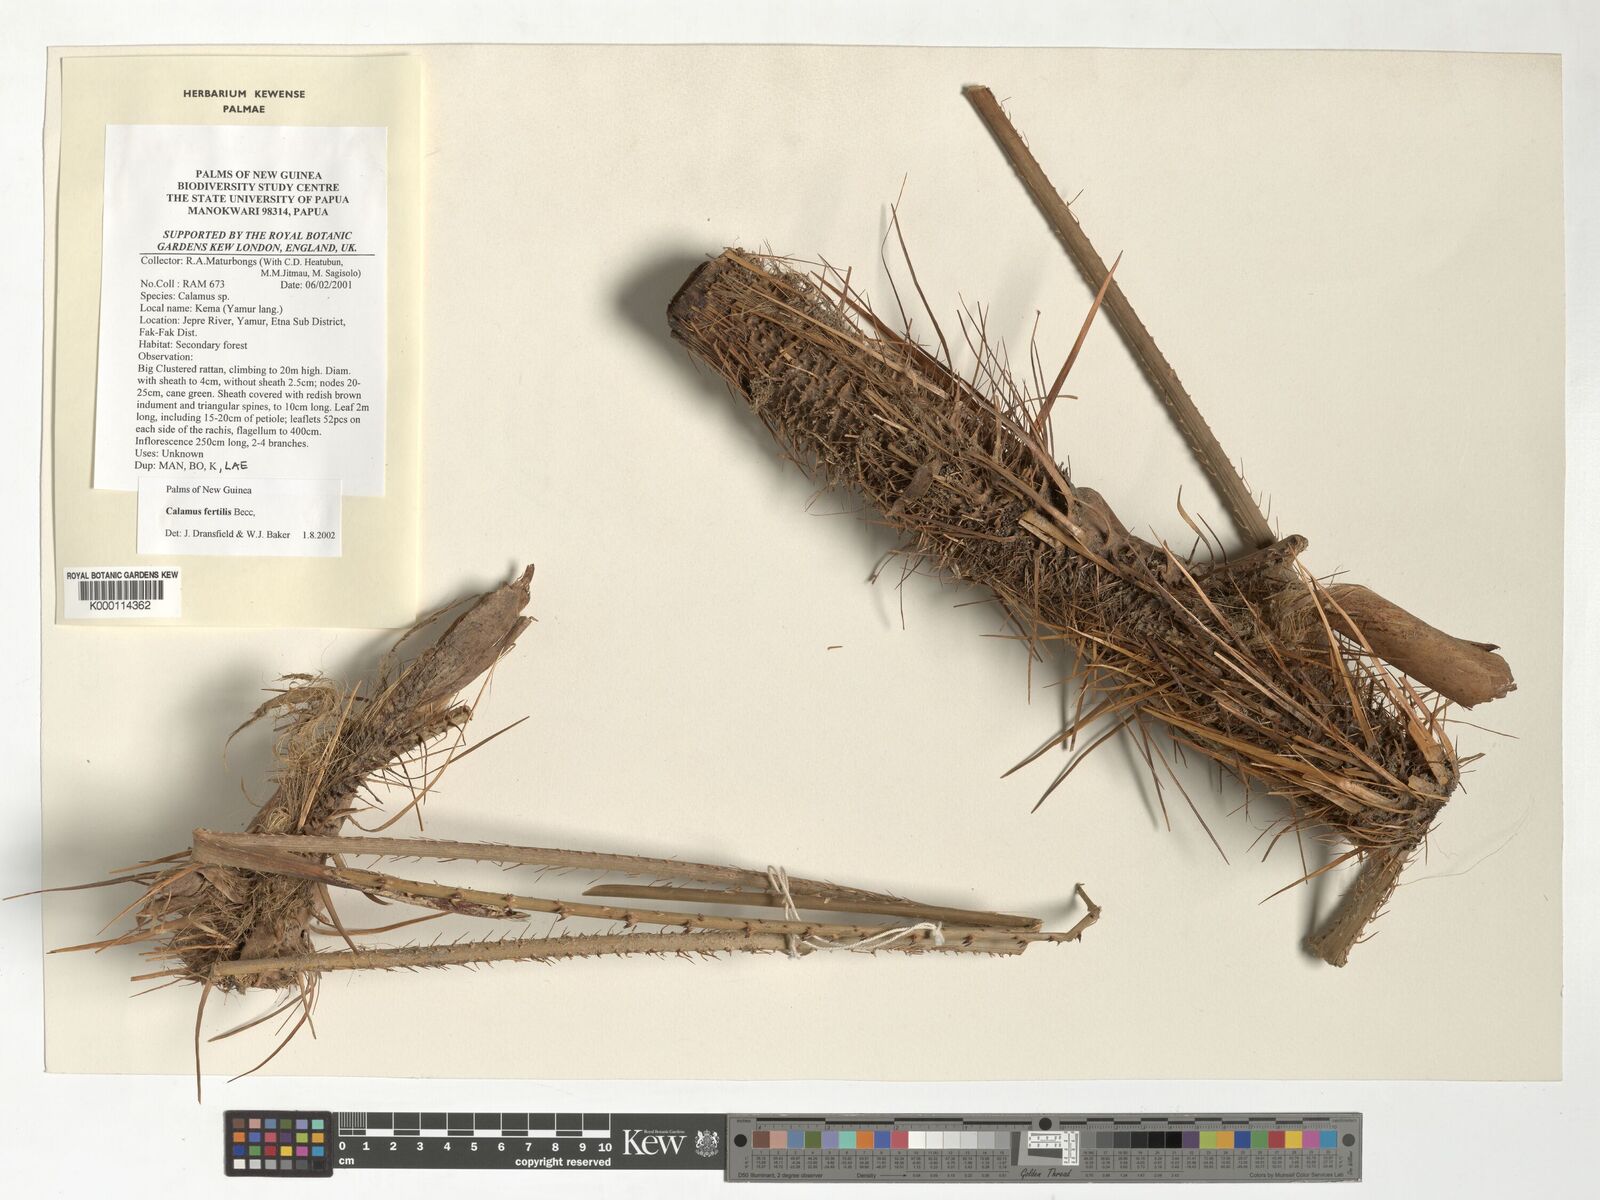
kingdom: Plantae
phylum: Tracheophyta
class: Liliopsida
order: Arecales
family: Arecaceae
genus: Calamus
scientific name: Calamus fertilis
